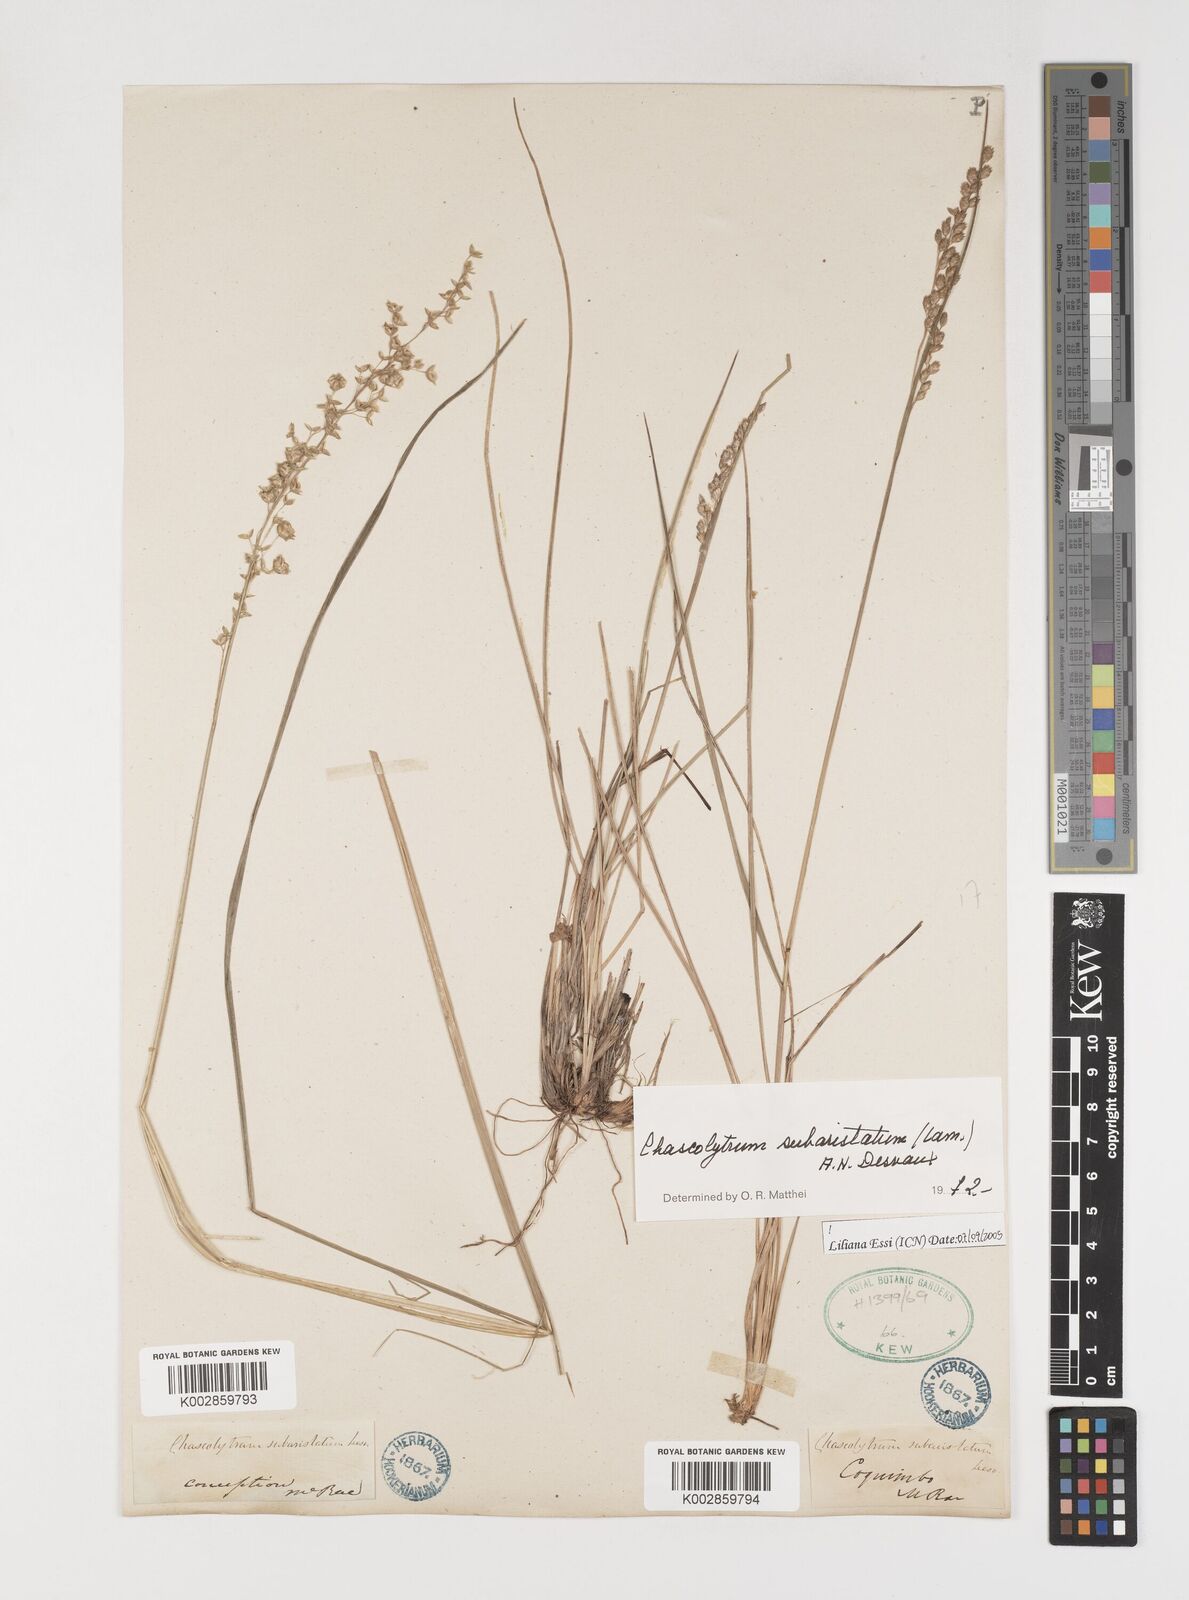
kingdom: Plantae
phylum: Tracheophyta
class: Liliopsida
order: Poales
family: Poaceae
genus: Chascolytrum
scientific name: Chascolytrum subaristatum
